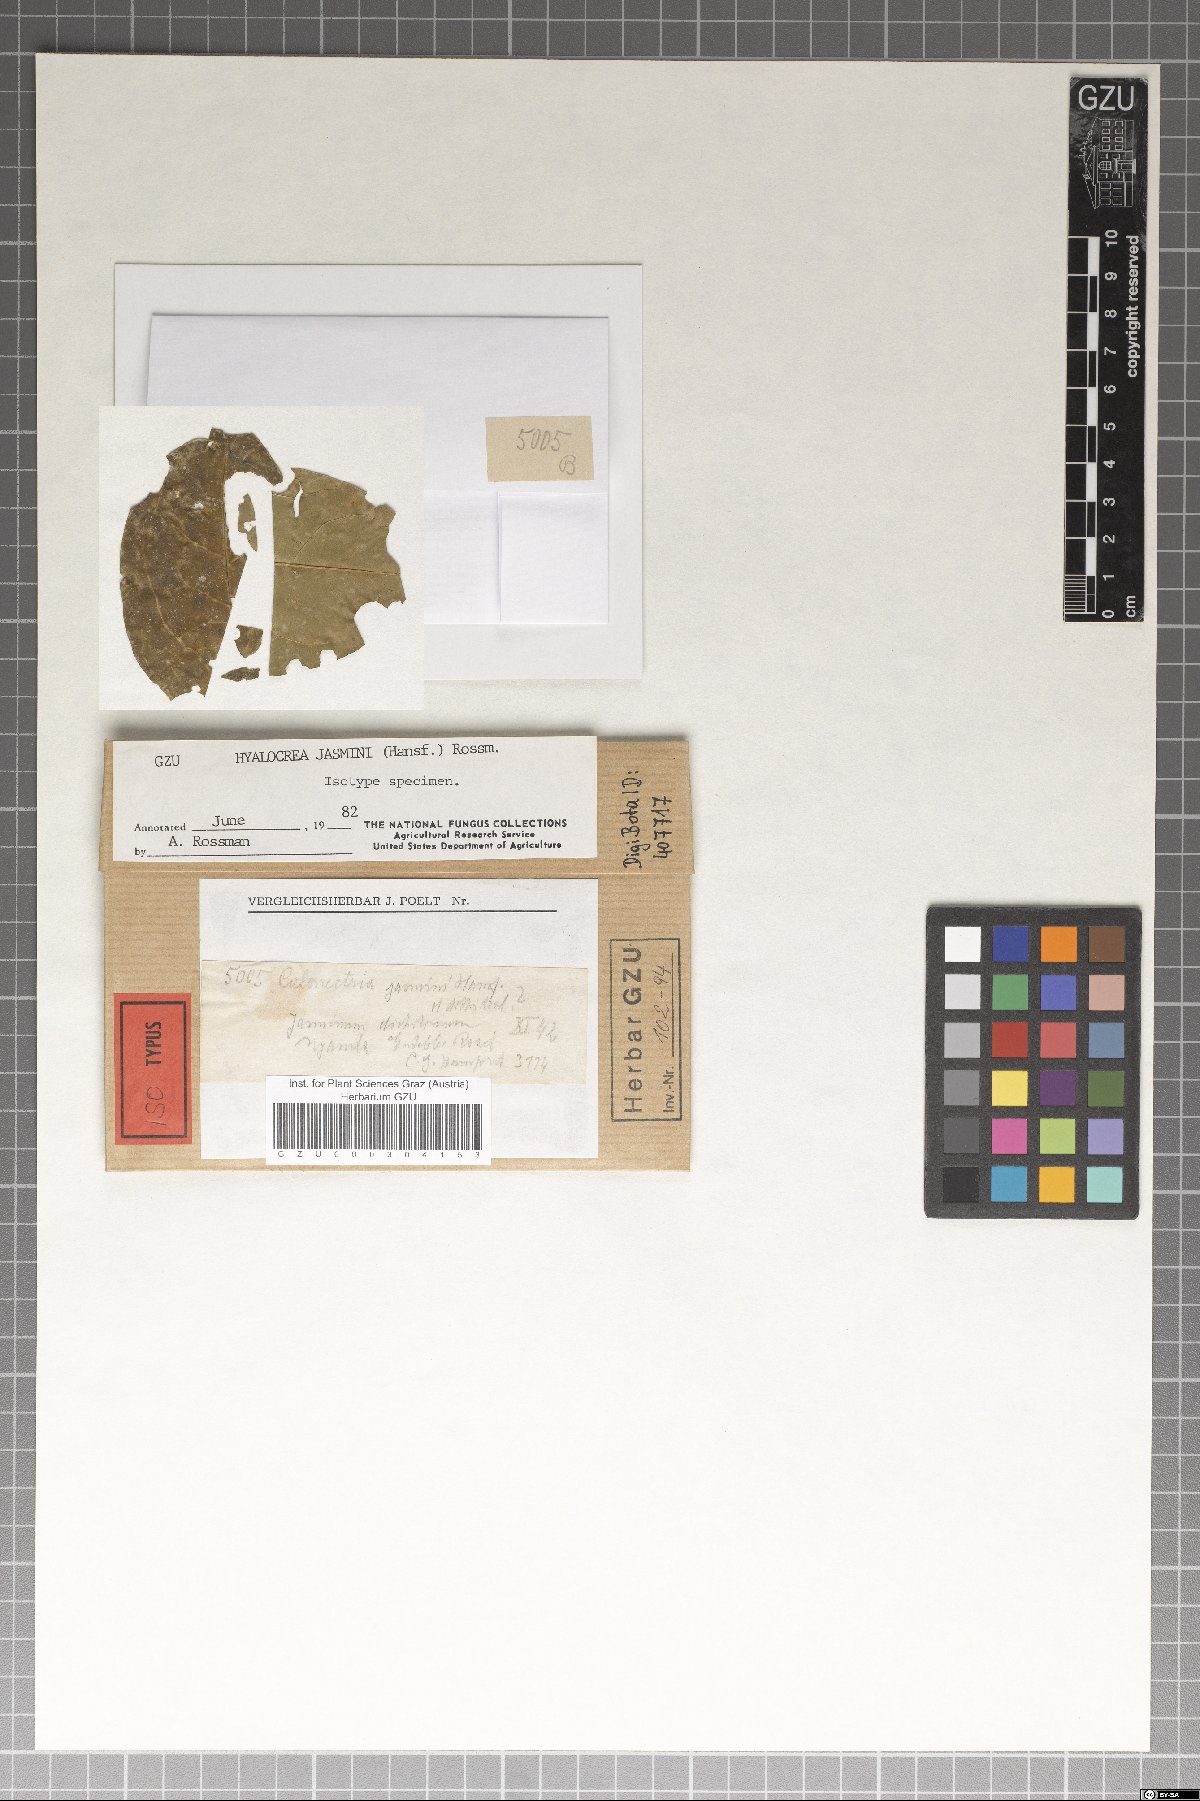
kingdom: Fungi
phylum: Ascomycota
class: Dothideomycetes
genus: Hyalocrea
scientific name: Hyalocrea jasmini
